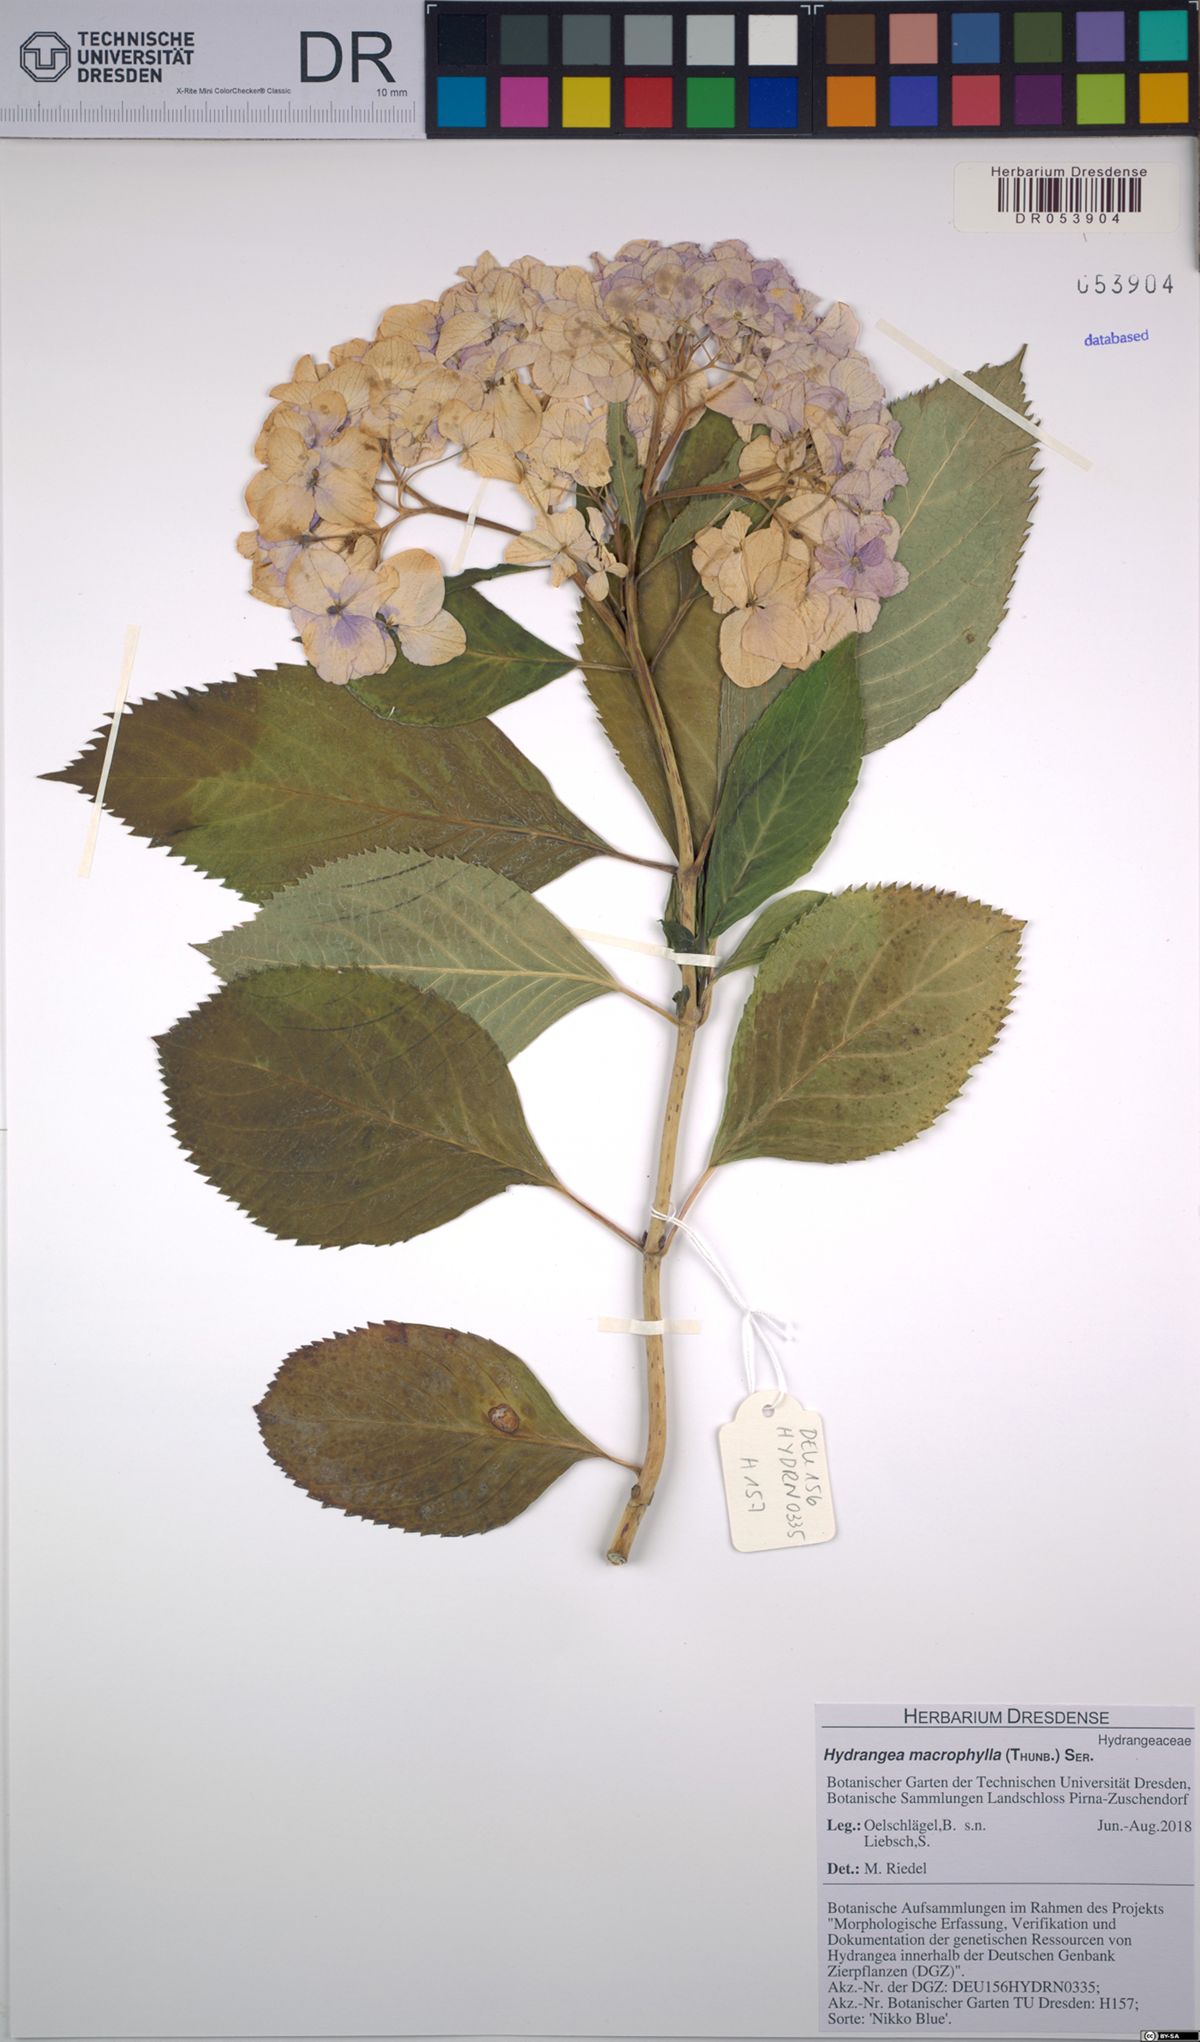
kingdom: Plantae
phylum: Tracheophyta
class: Magnoliopsida
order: Cornales
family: Hydrangeaceae
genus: Hydrangea
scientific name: Hydrangea macrophylla
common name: Hydrangea
